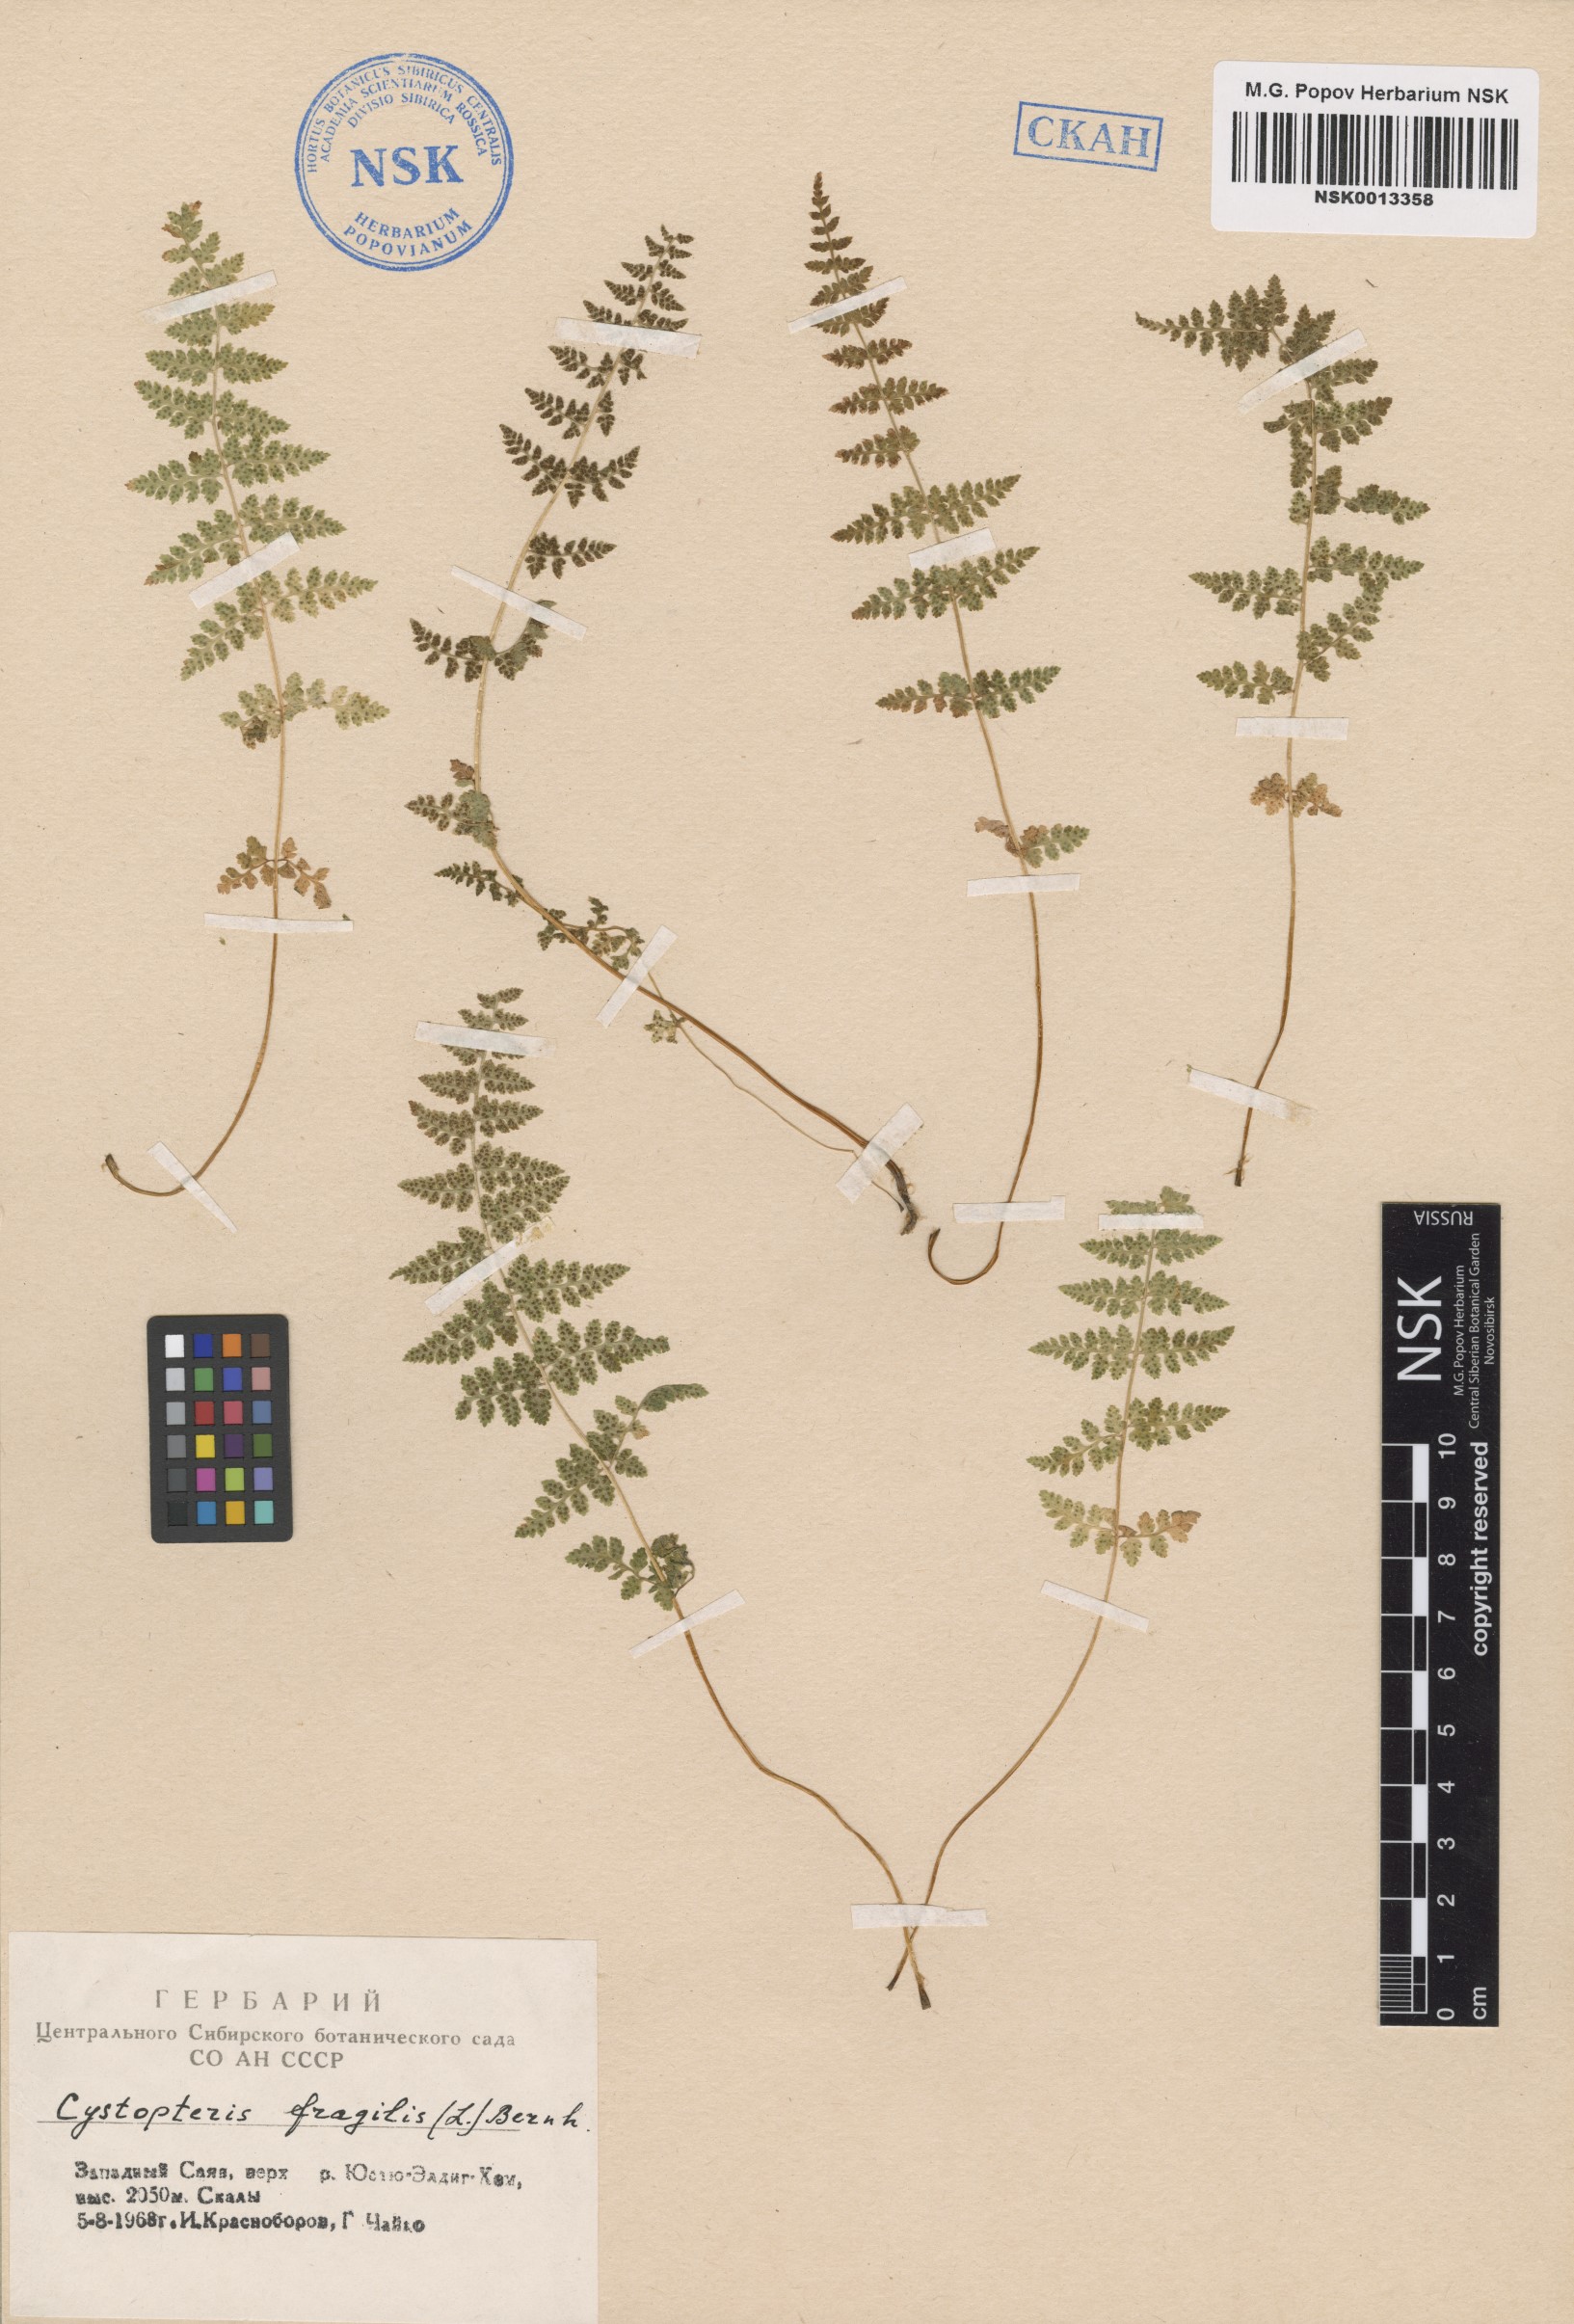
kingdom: Plantae
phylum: Tracheophyta
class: Polypodiopsida
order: Polypodiales
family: Cystopteridaceae
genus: Cystopteris
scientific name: Cystopteris fragilis
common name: Brittle bladder fern
